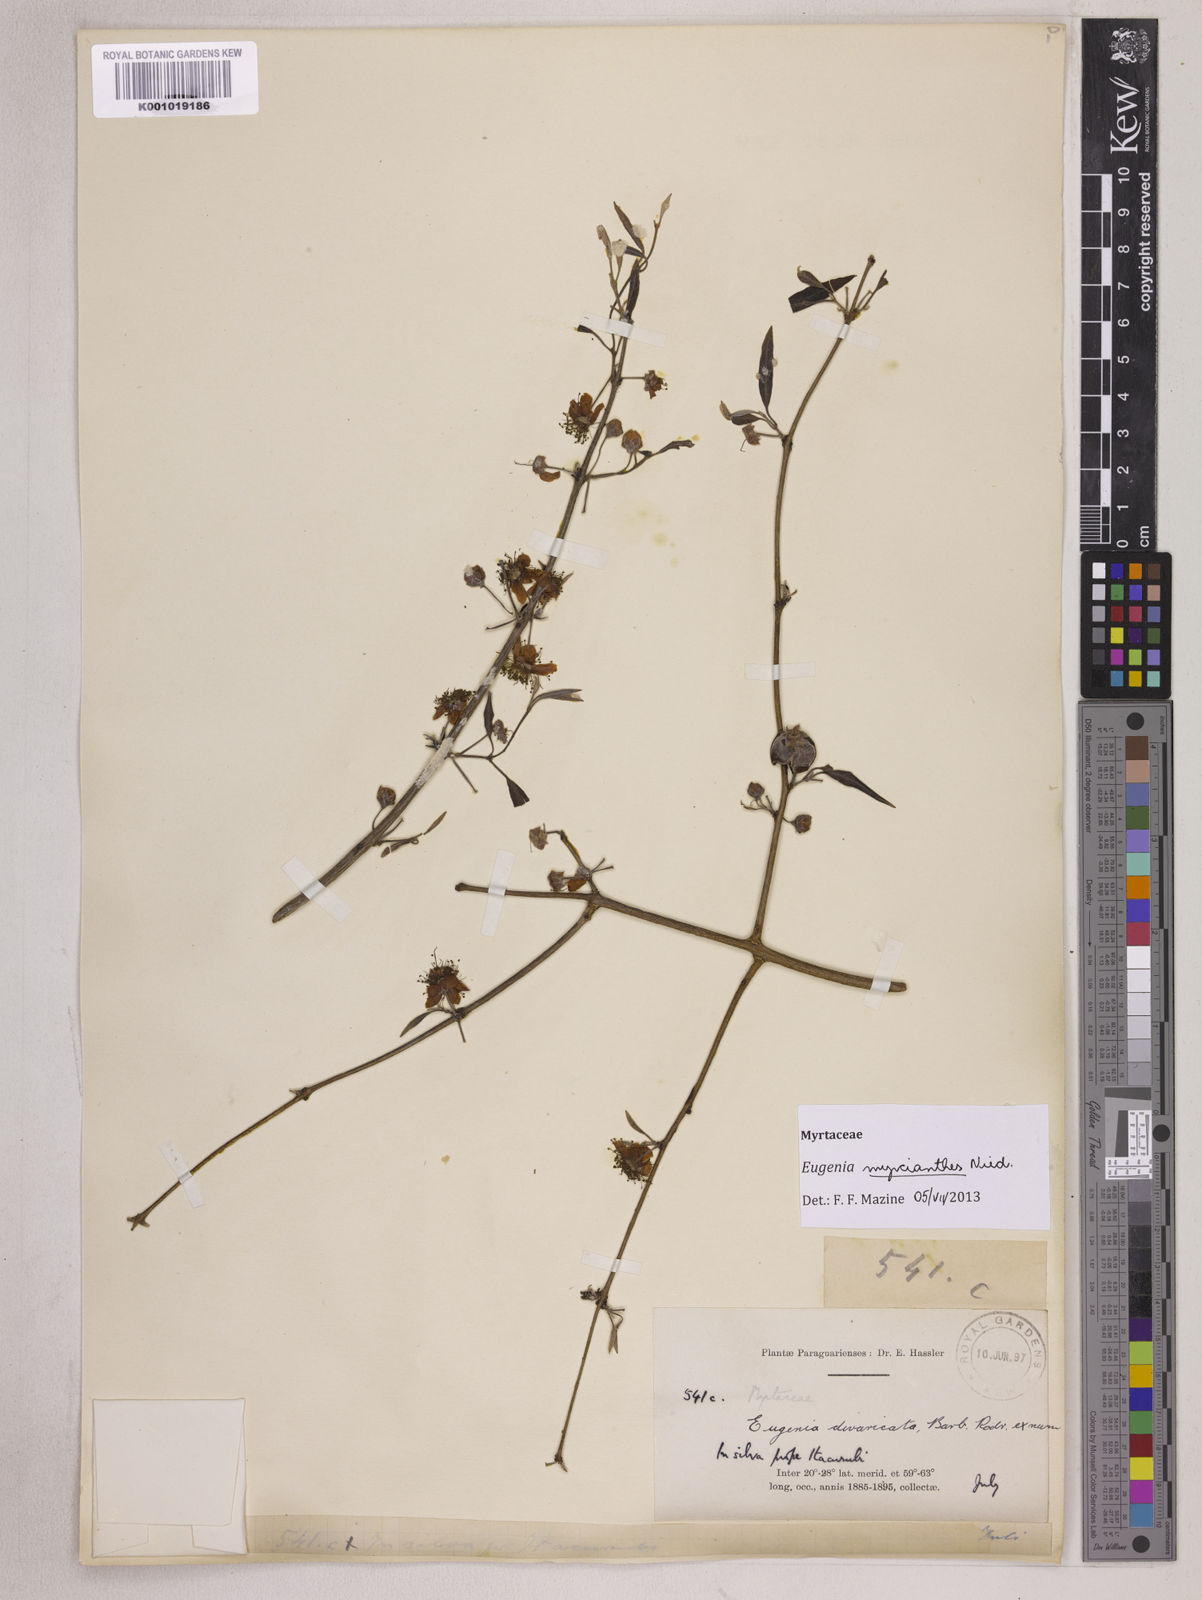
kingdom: Plantae
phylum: Tracheophyta
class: Magnoliopsida
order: Myrtales
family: Myrtaceae
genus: Eugenia
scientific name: Eugenia myrcianthes
